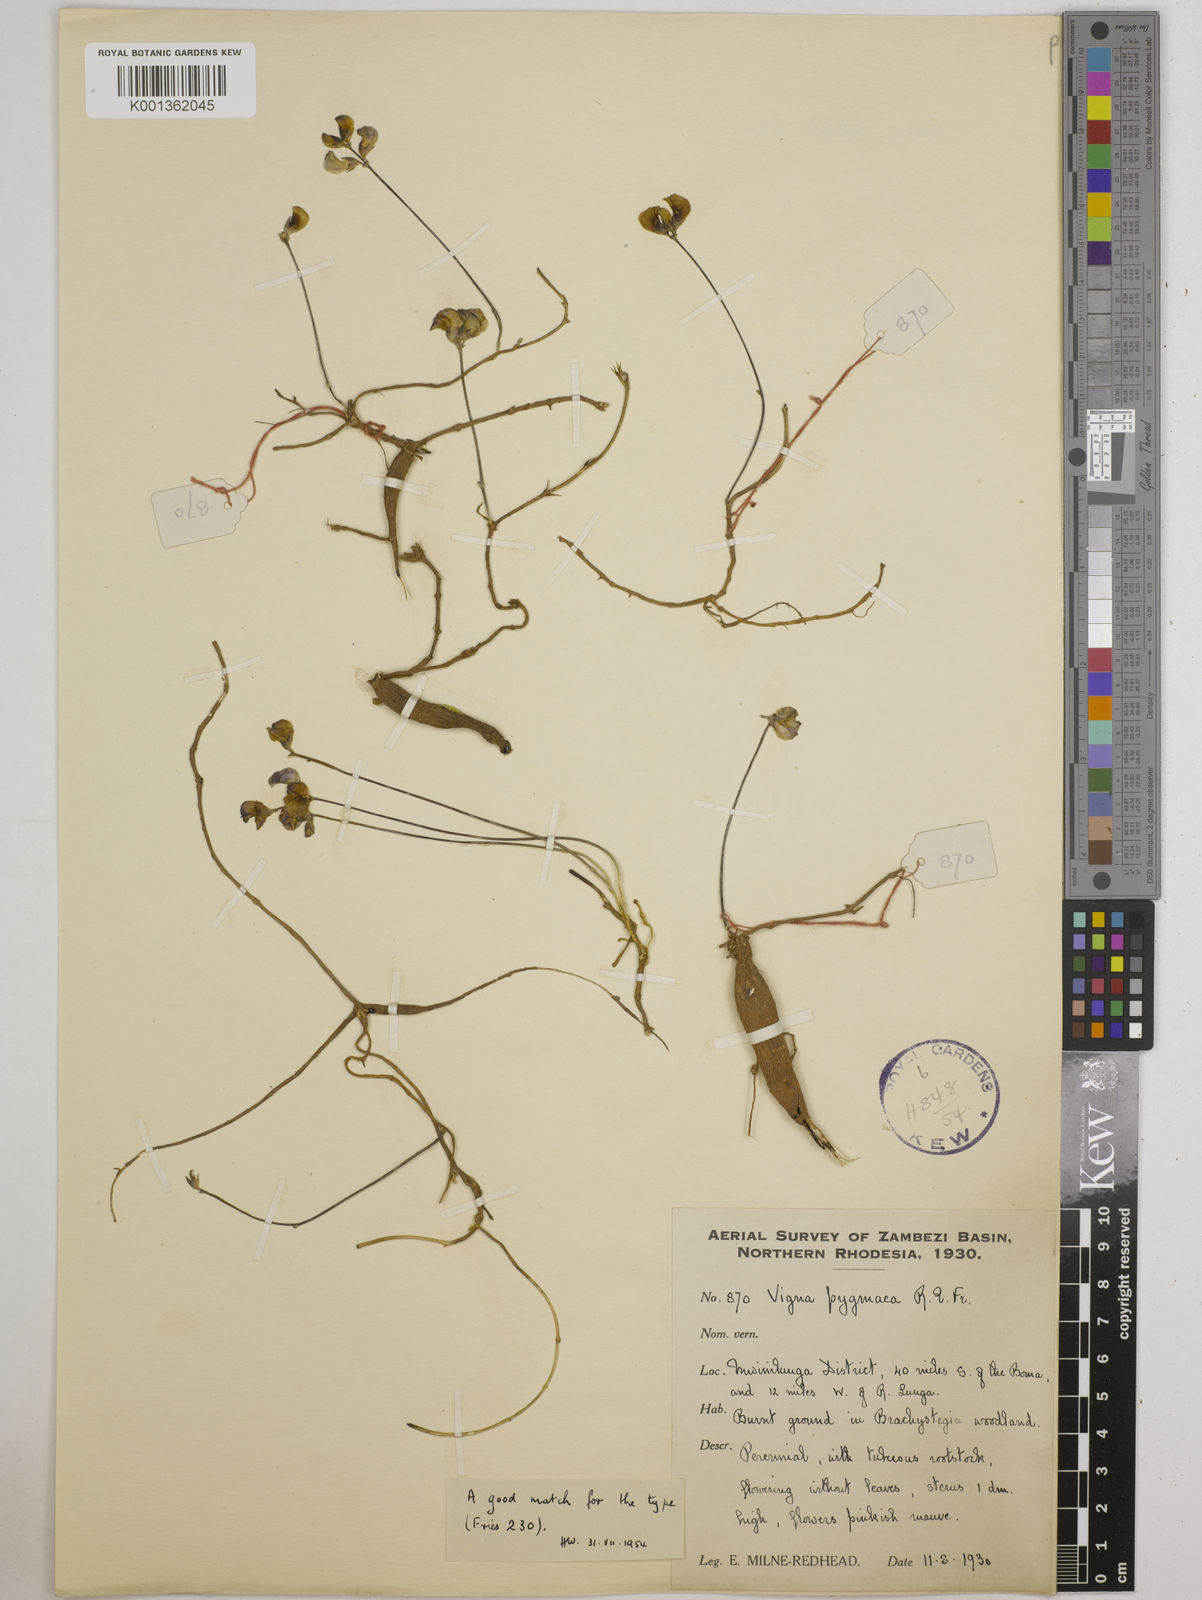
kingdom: Plantae
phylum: Tracheophyta
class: Magnoliopsida
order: Fabales
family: Fabaceae
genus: Vigna
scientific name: Vigna pygmaea
